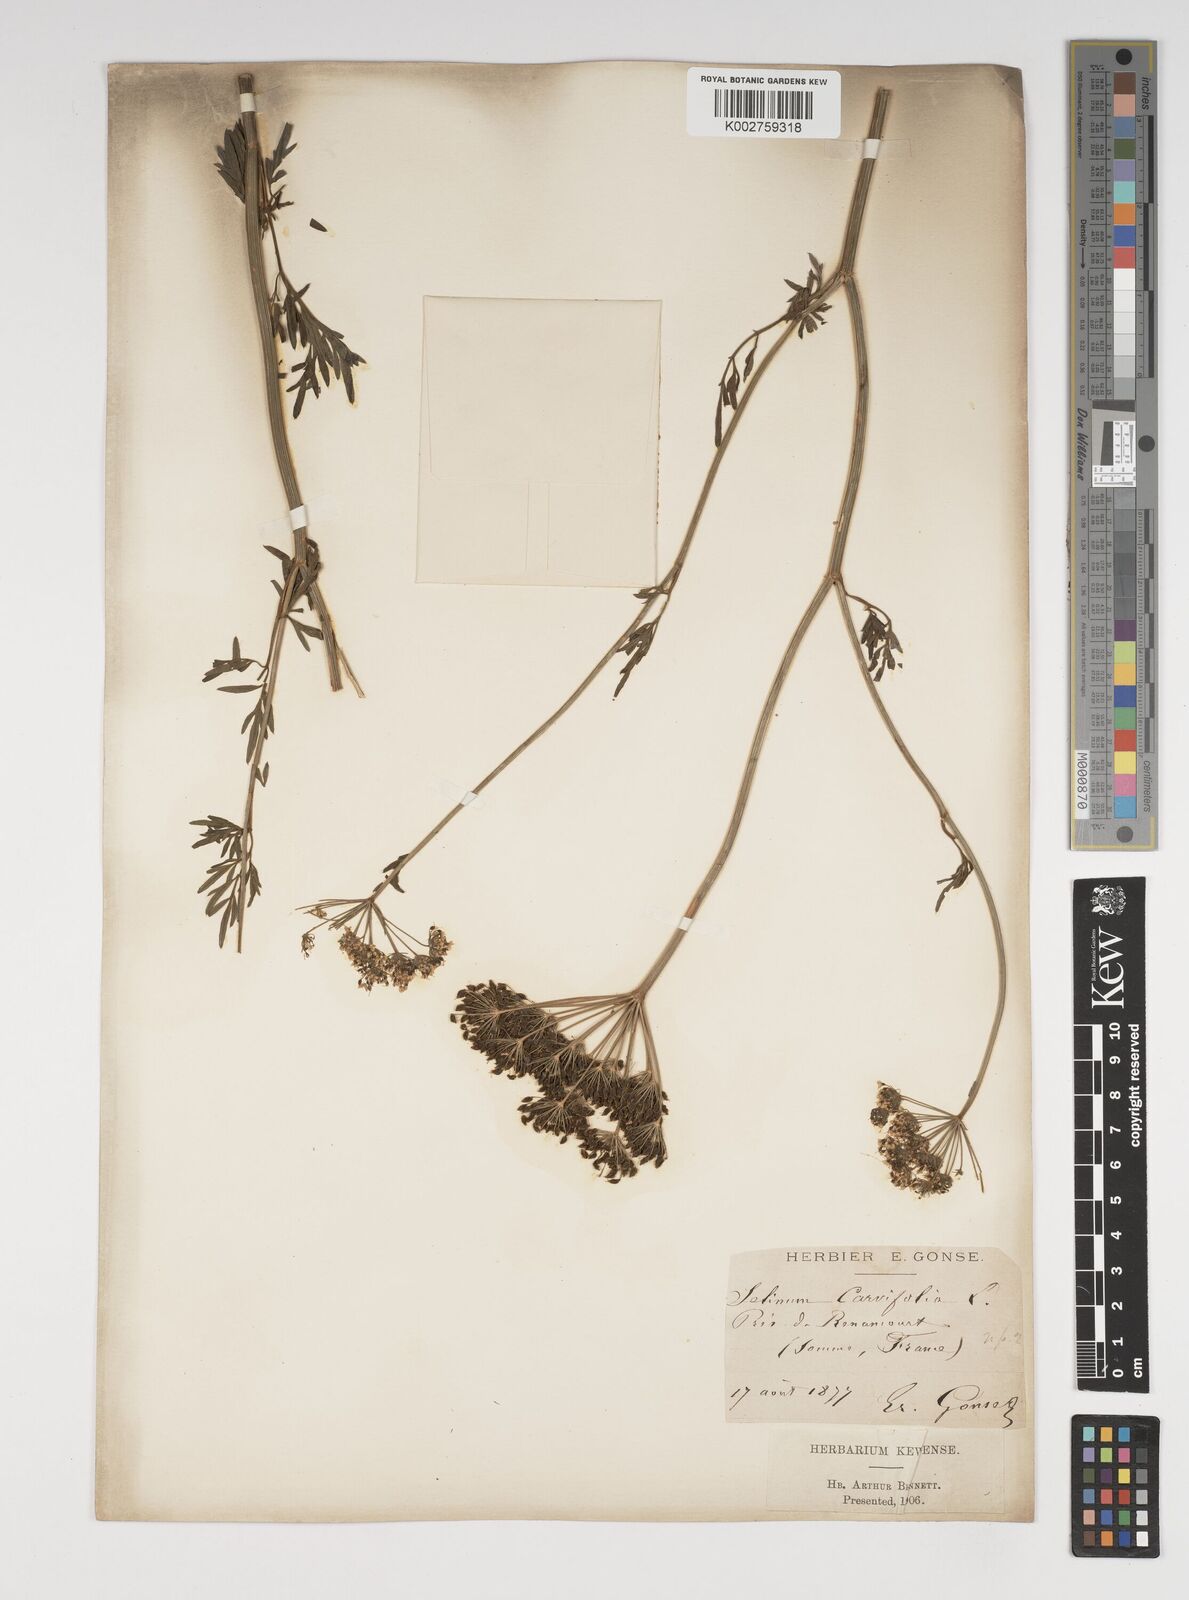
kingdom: Plantae
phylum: Tracheophyta
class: Magnoliopsida
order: Apiales
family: Apiaceae
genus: Selinum
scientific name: Selinum carvifolia
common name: Cambridge milk-parsley
